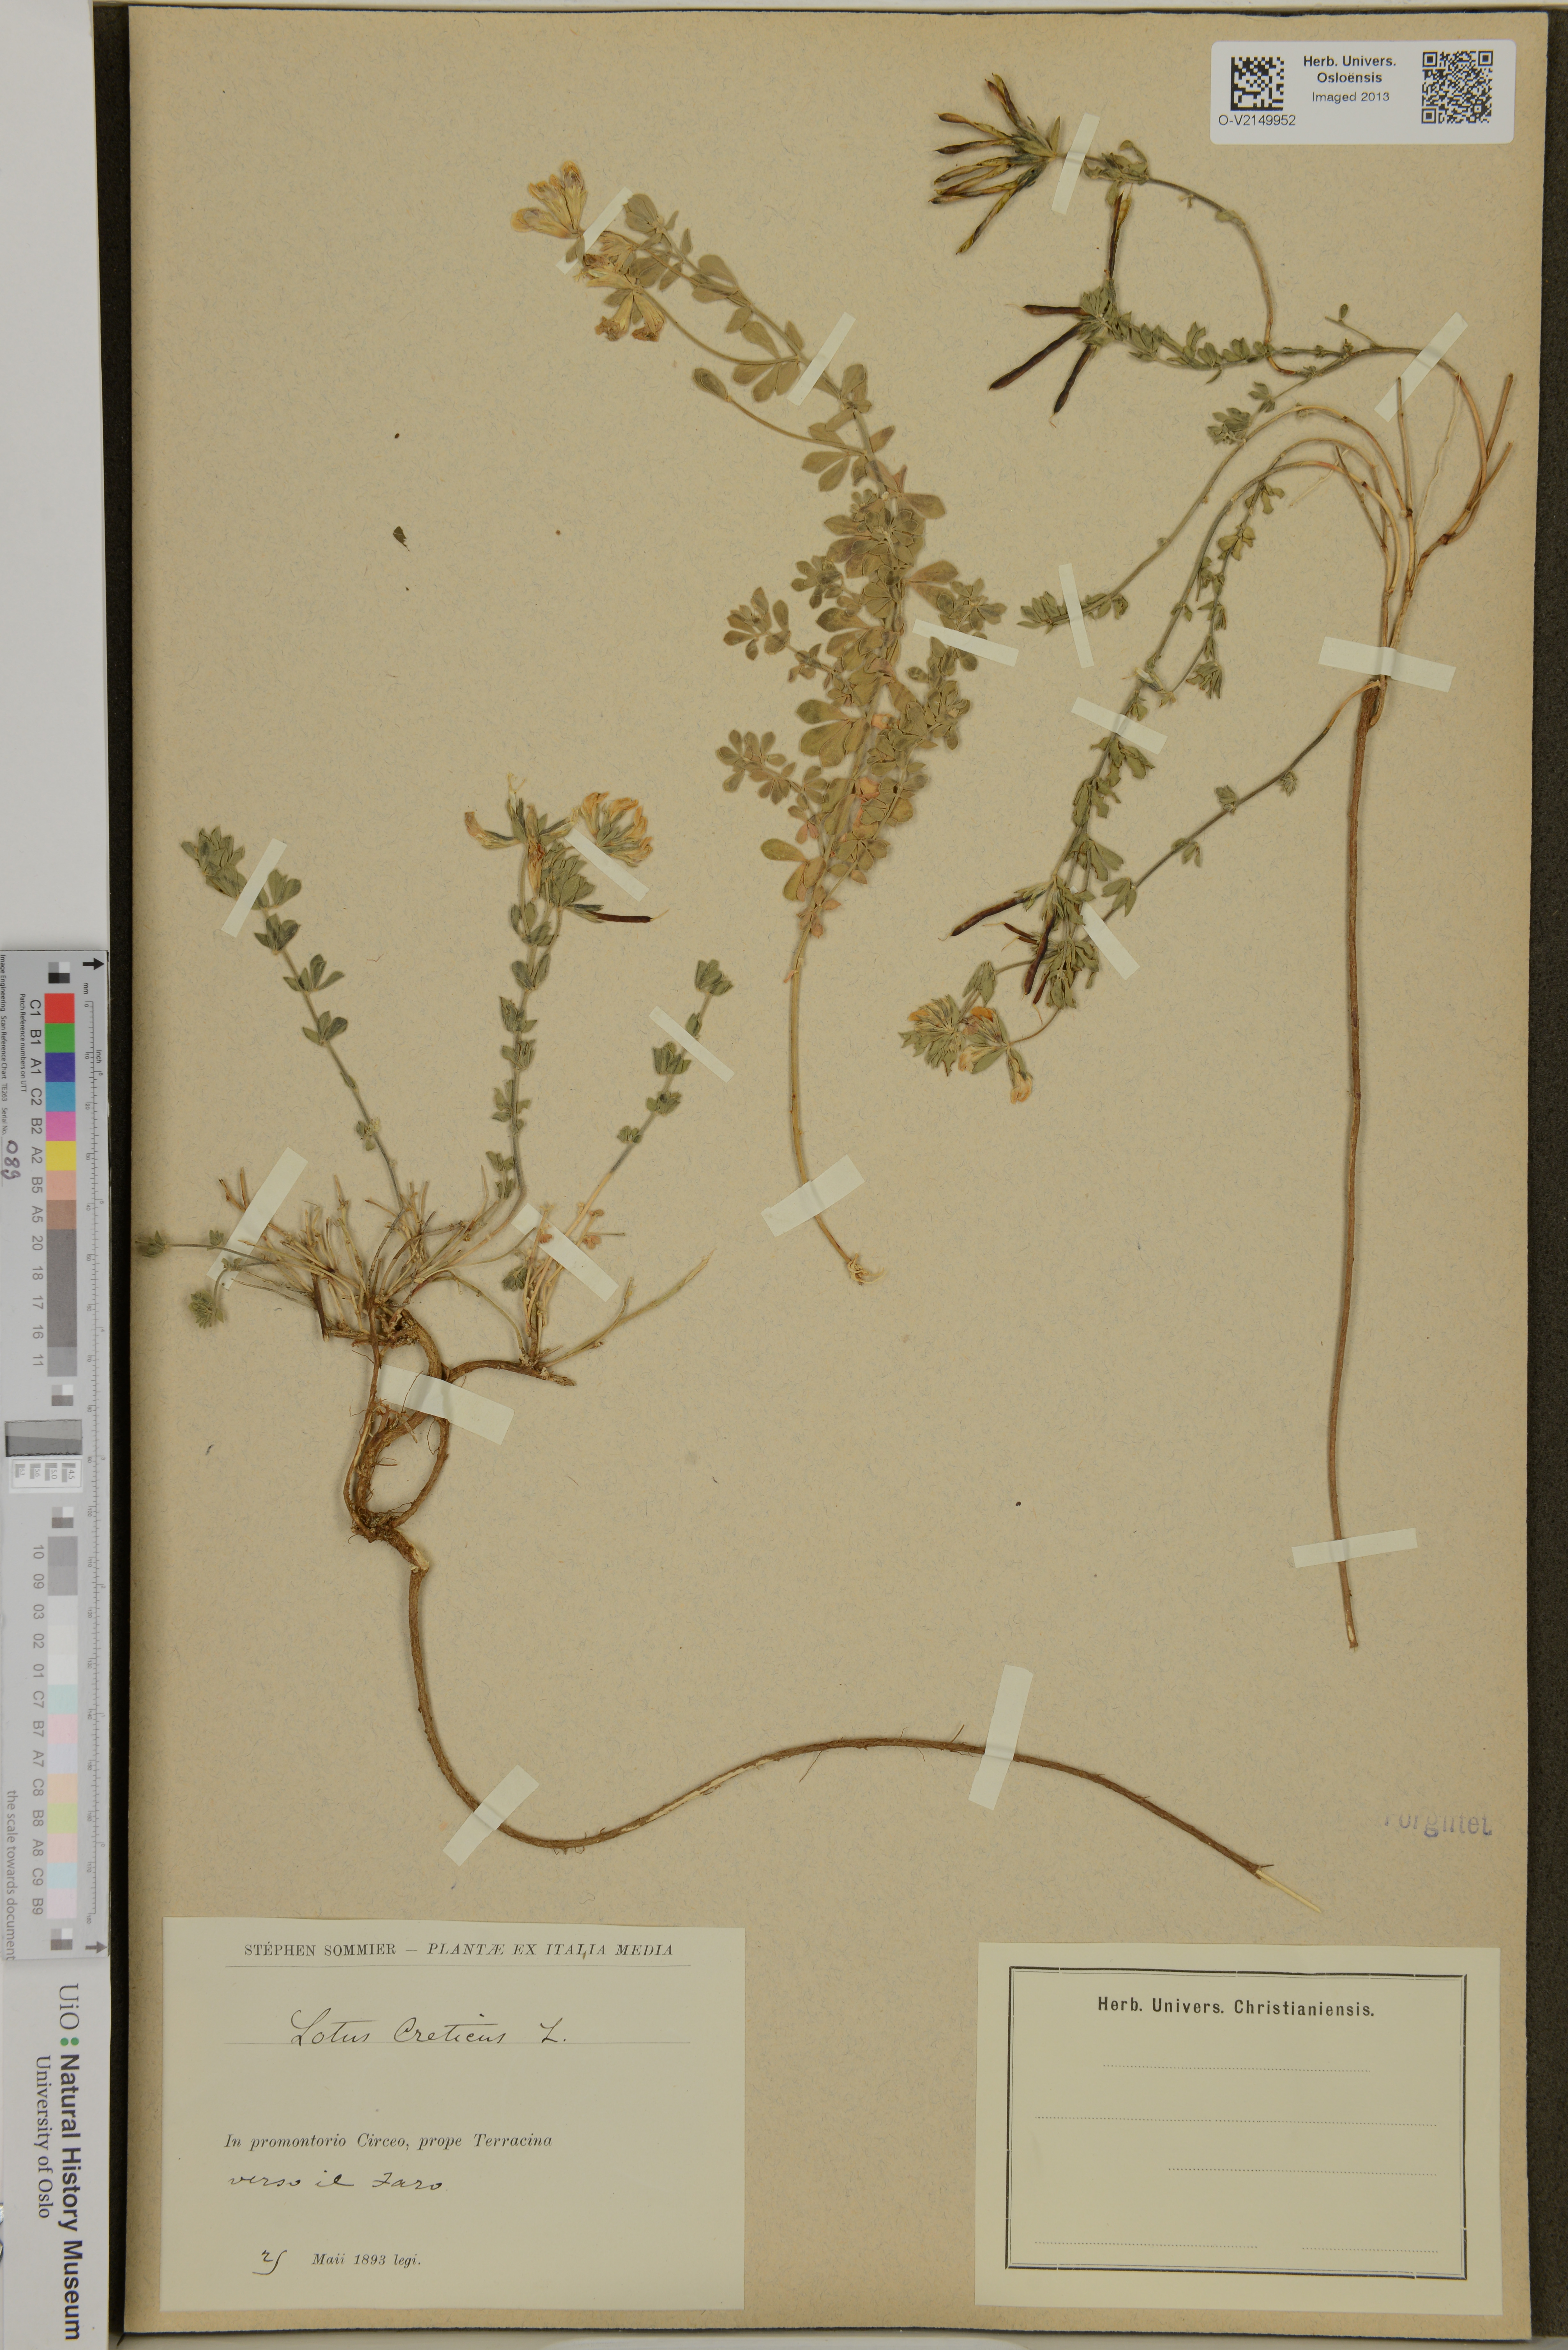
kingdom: Plantae
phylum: Tracheophyta
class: Magnoliopsida
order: Fabales
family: Fabaceae
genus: Lotus
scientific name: Lotus creticus
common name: Cretan bird's-foot trefoil
